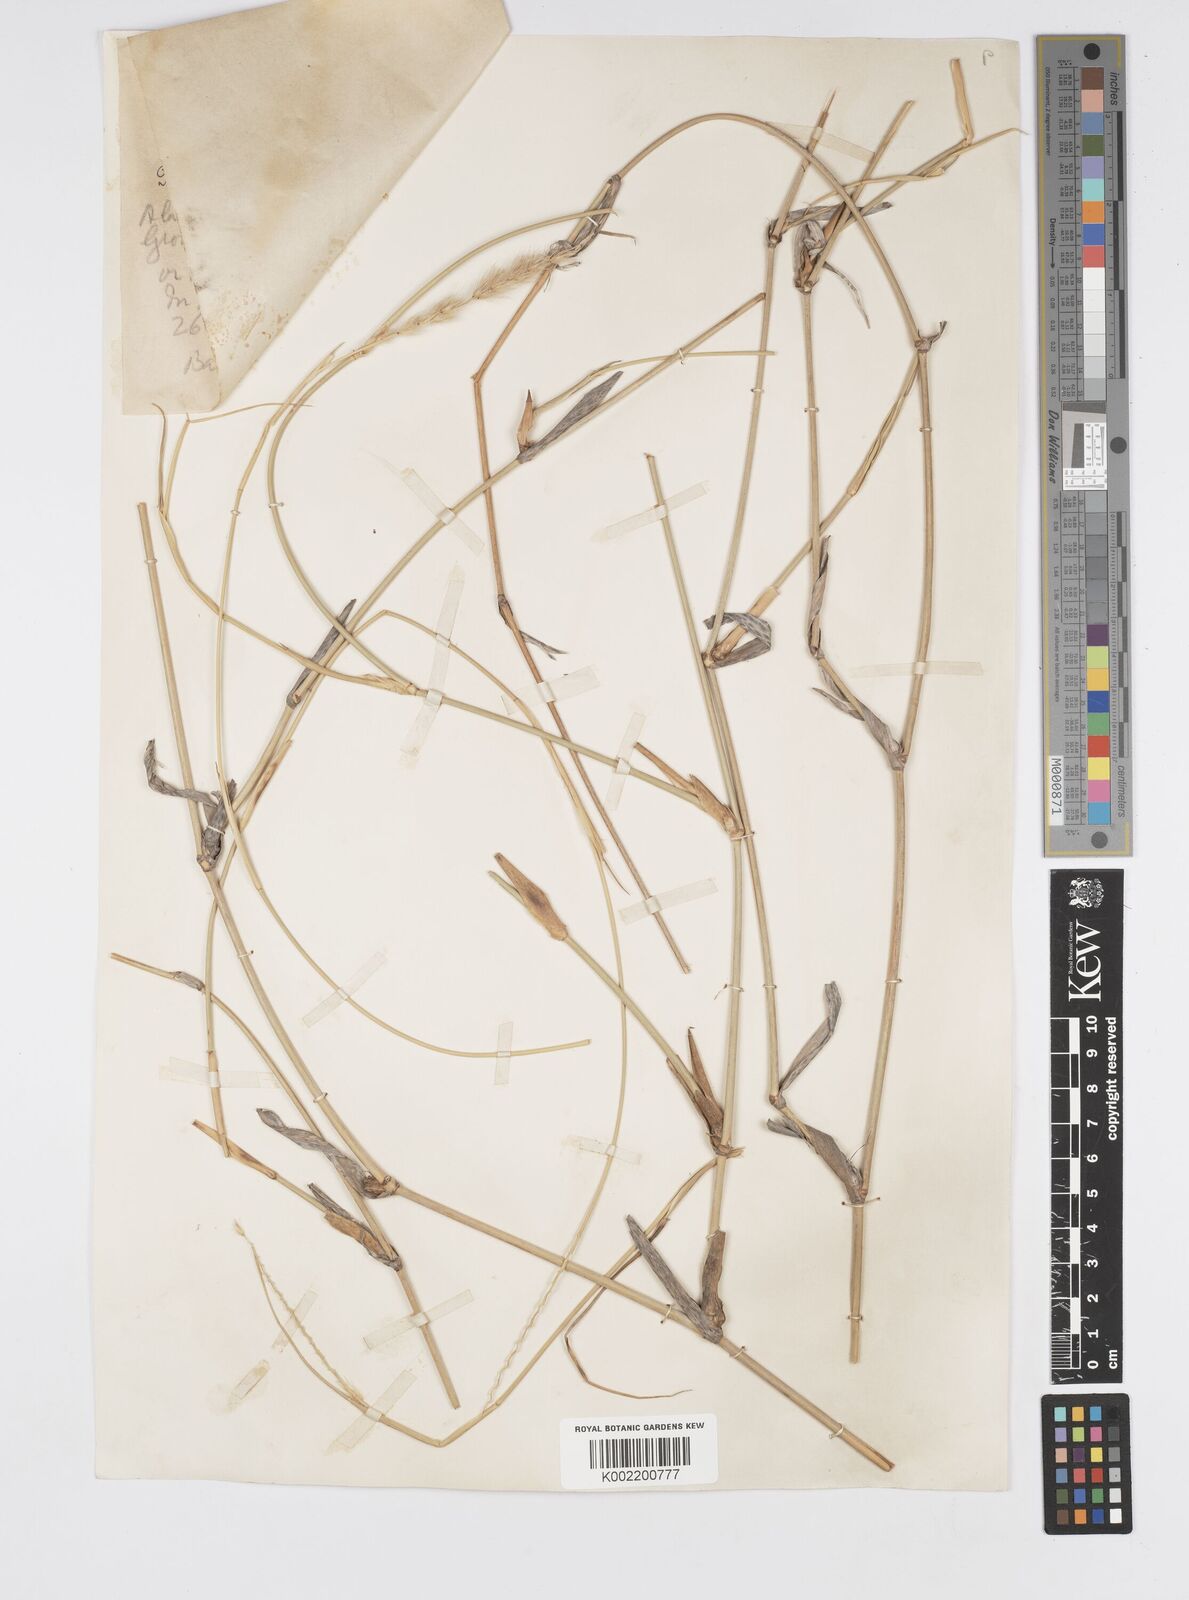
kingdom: Plantae
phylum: Tracheophyta
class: Liliopsida
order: Poales
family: Poaceae
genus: Cenchrus
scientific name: Cenchrus divisus
